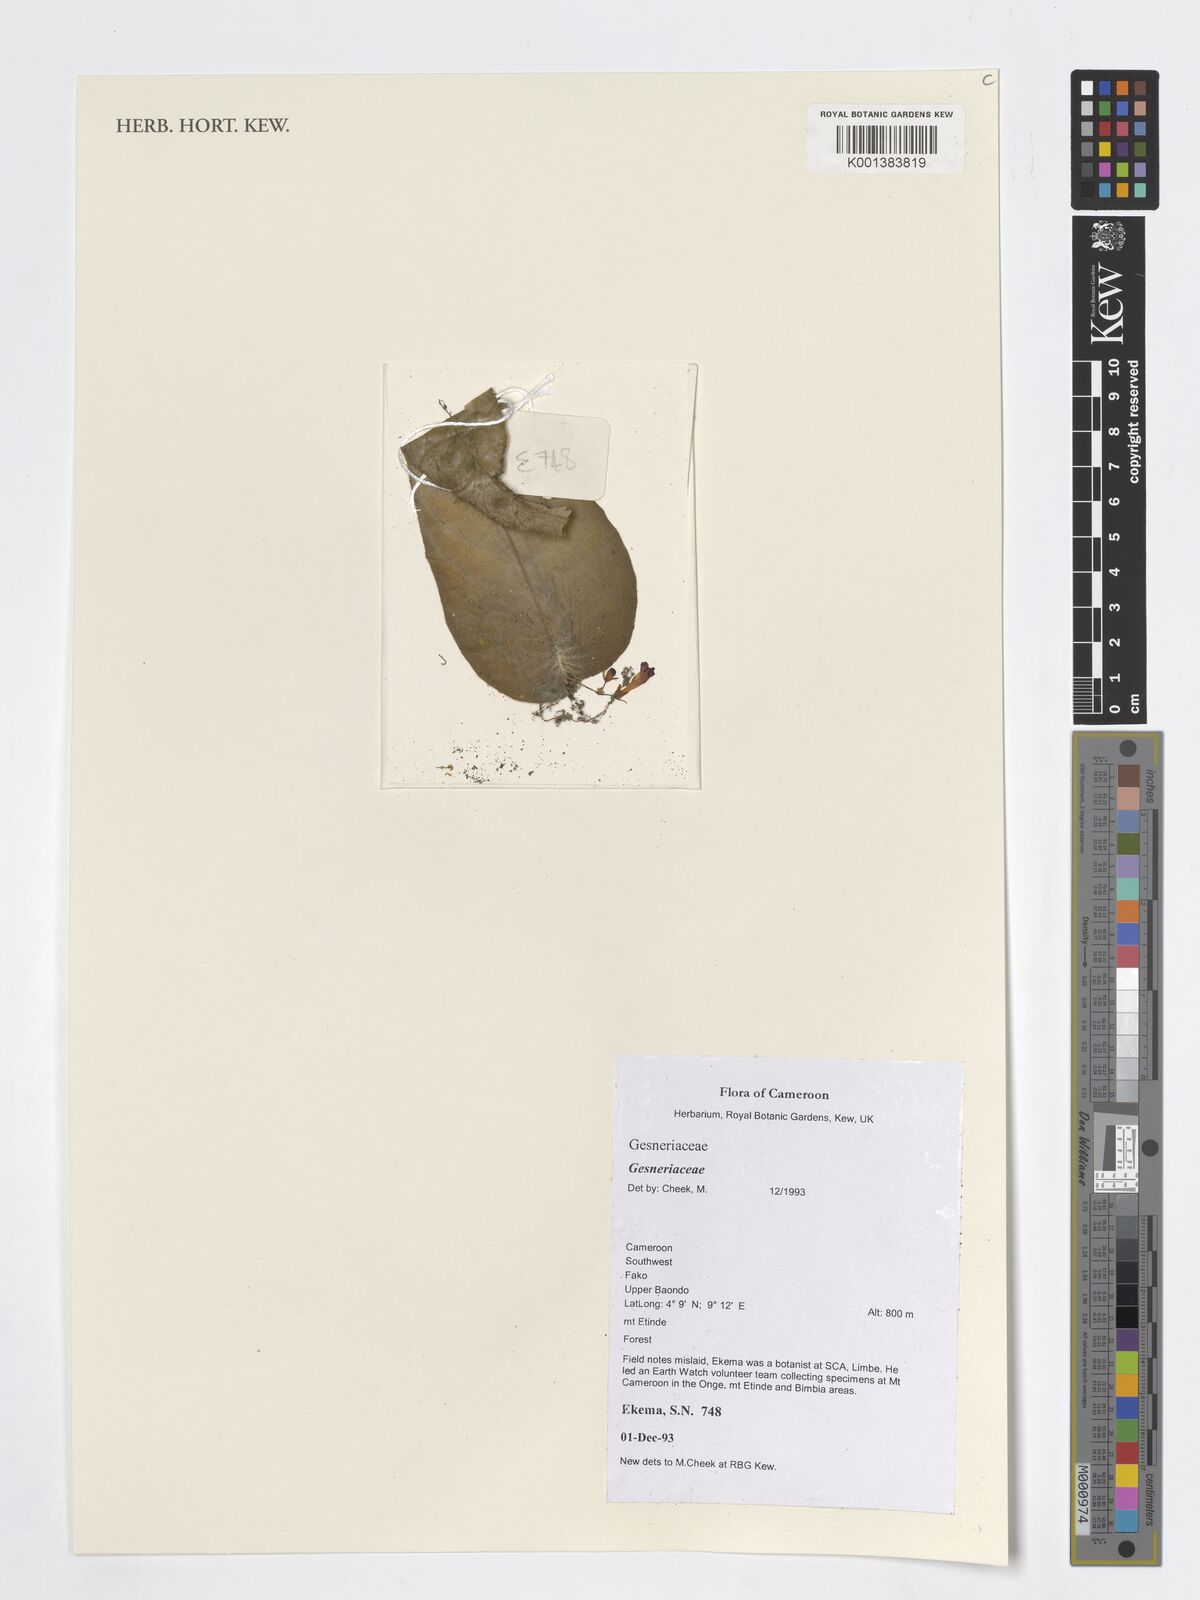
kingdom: Plantae
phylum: Tracheophyta
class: Magnoliopsida
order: Lamiales
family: Gesneriaceae
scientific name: Gesneriaceae
